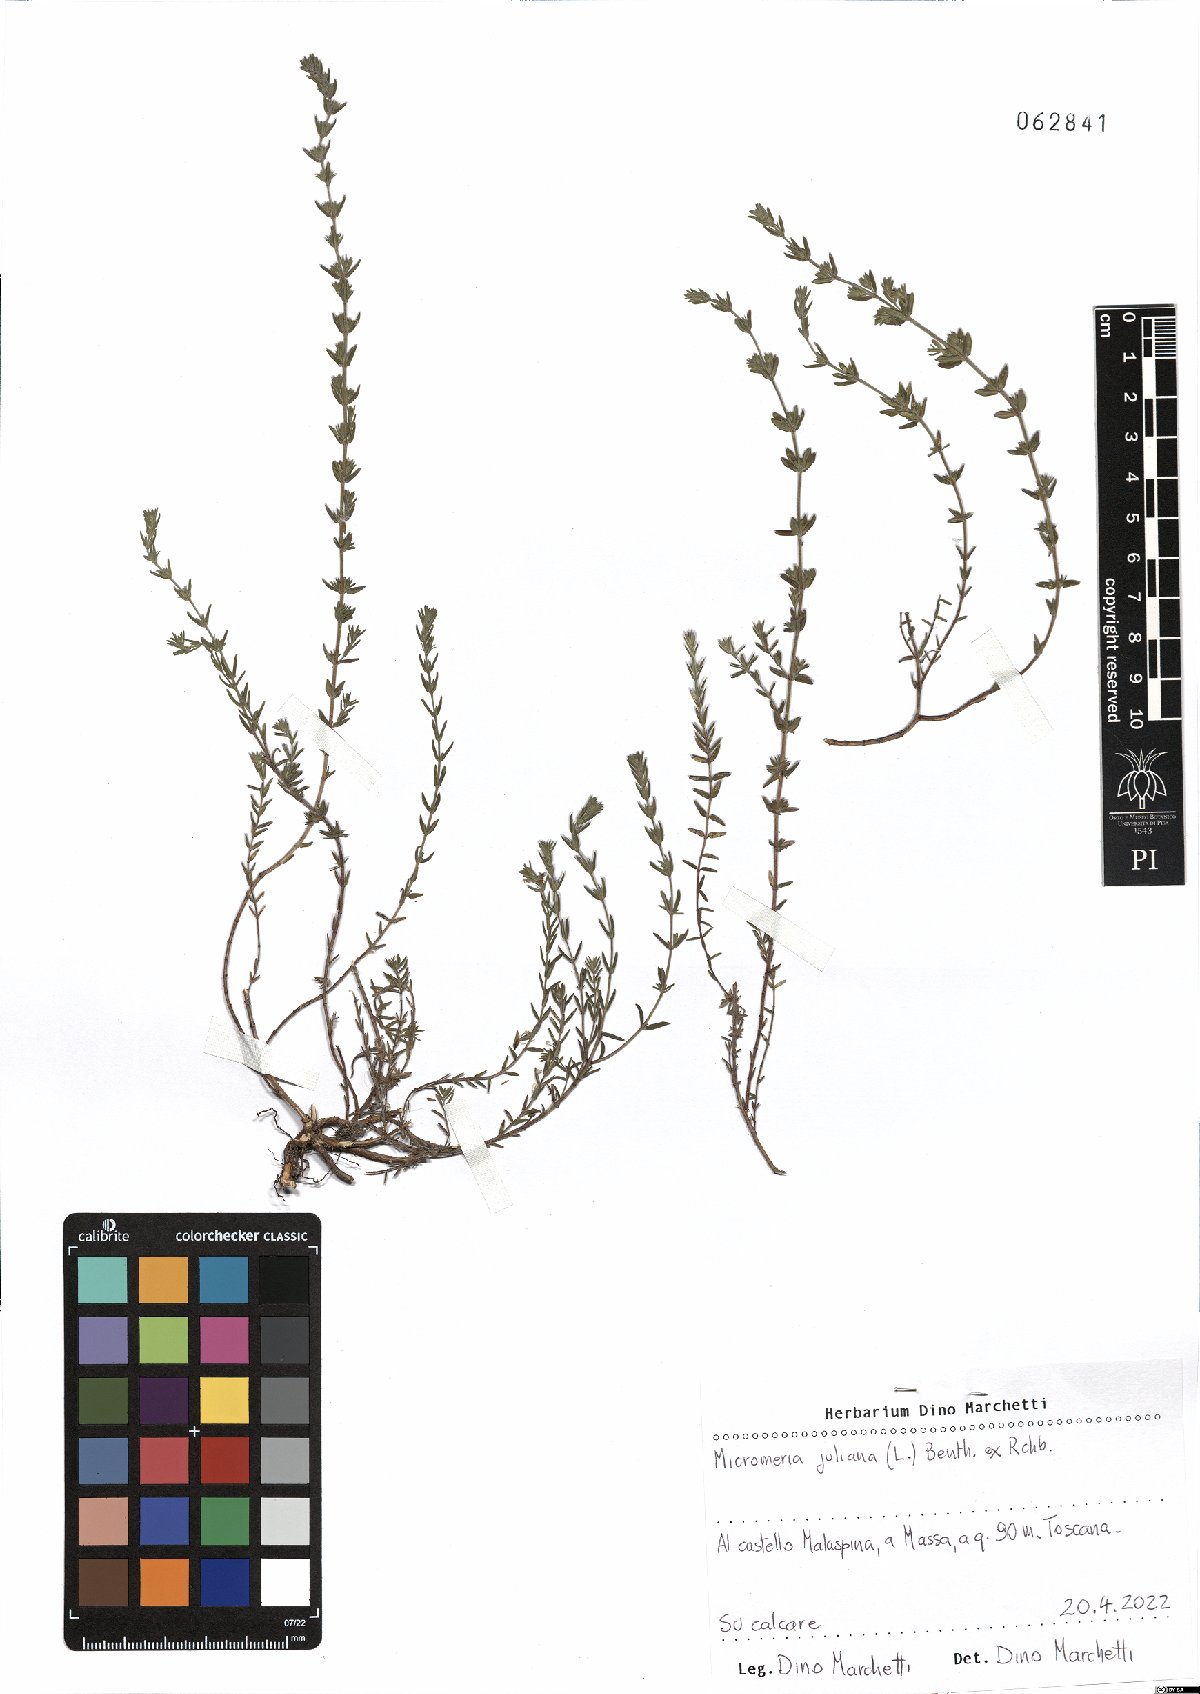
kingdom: Plantae
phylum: Tracheophyta
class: Magnoliopsida
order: Lamiales
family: Lamiaceae
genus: Micromeria
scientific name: Micromeria juliana
